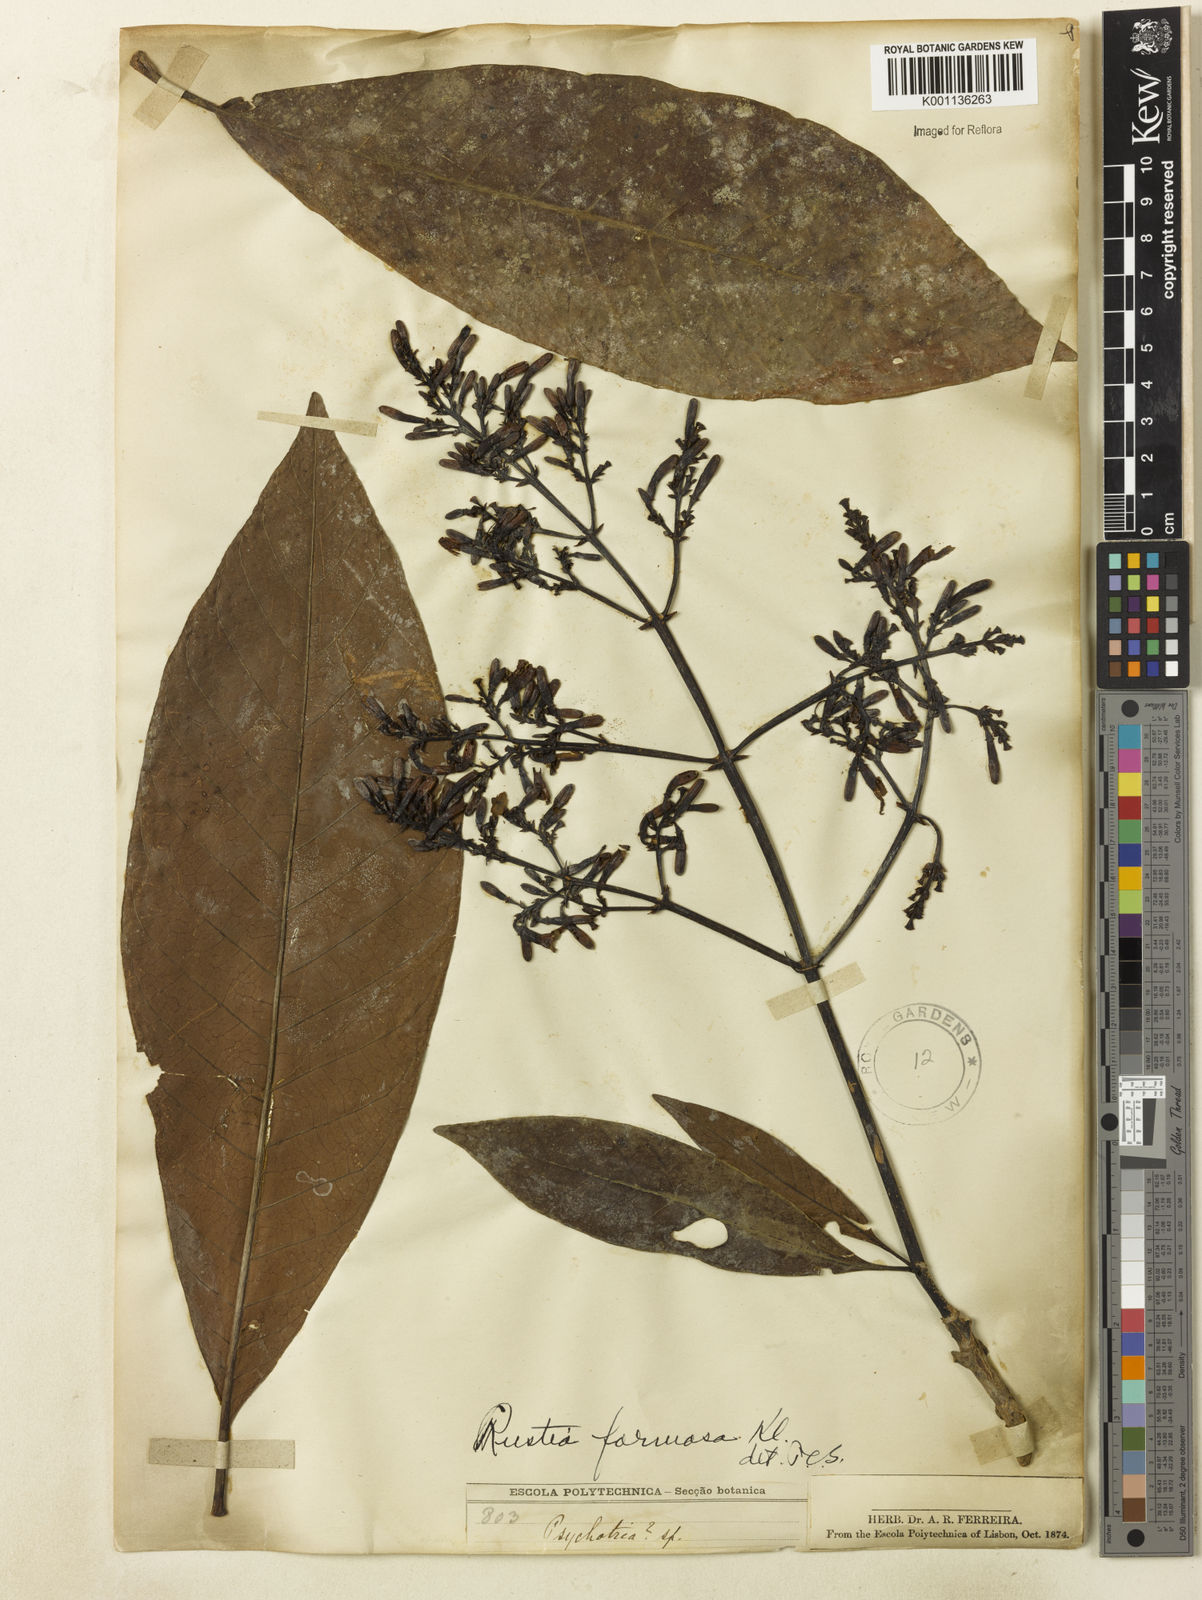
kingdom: Plantae
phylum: Tracheophyta
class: Magnoliopsida
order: Gentianales
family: Rubiaceae
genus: Rustia
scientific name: Rustia formosa
